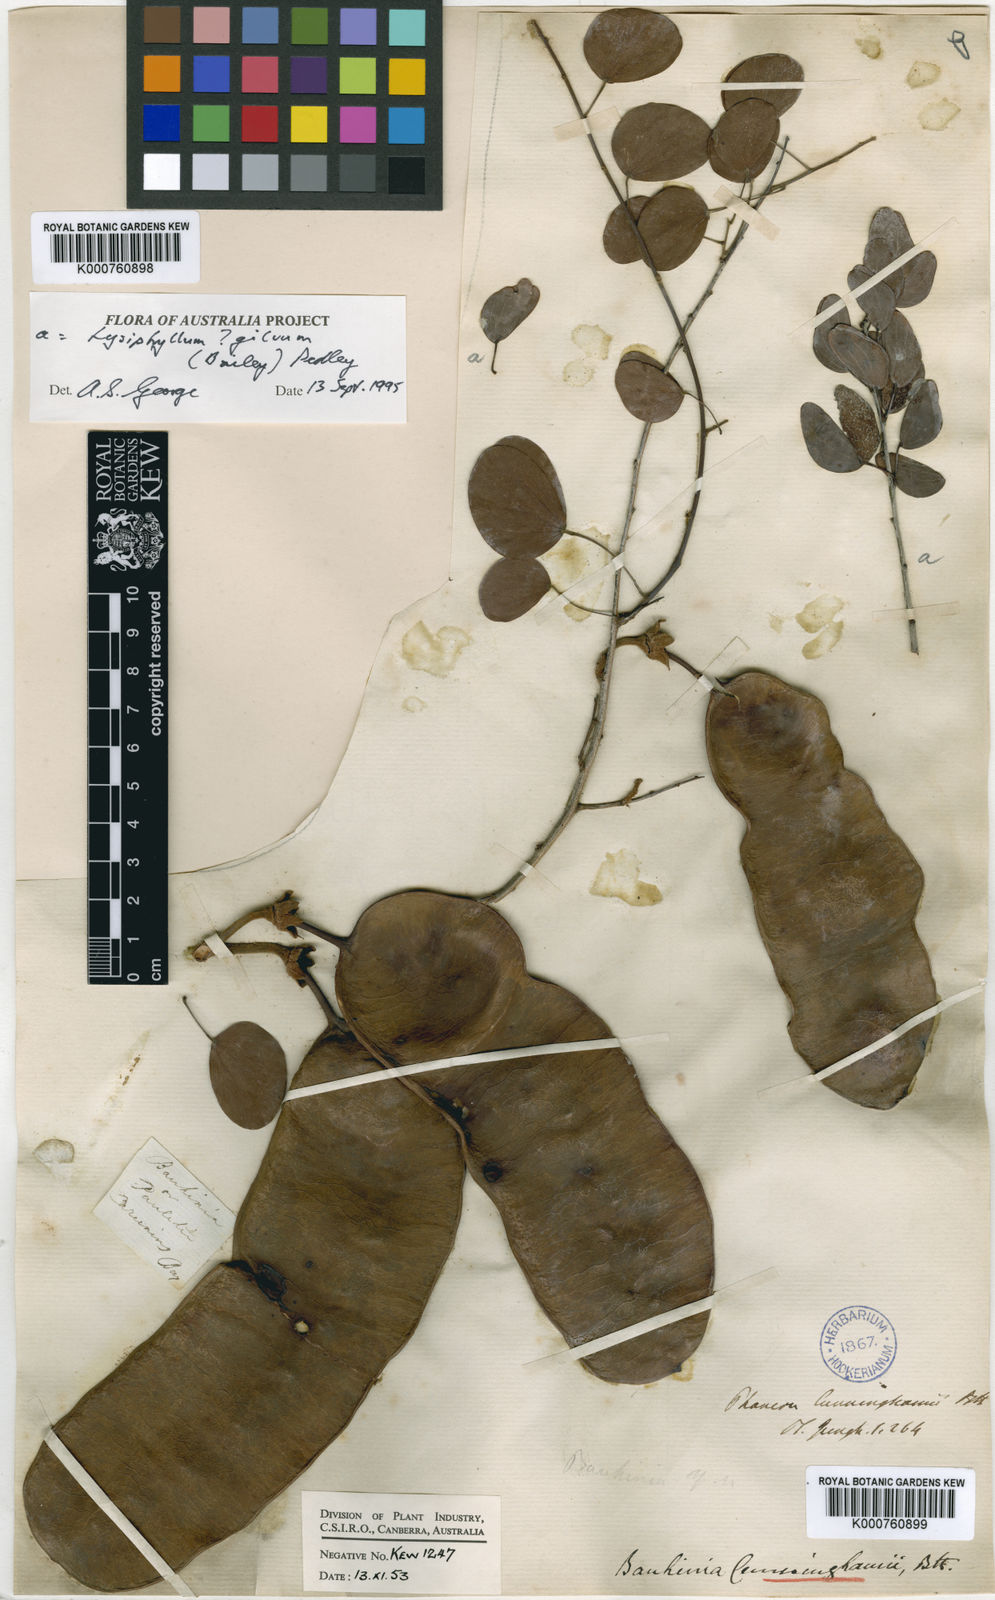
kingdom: Plantae
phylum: Tracheophyta
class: Magnoliopsida
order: Fabales
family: Fabaceae
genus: Lysiphyllum
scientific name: Lysiphyllum cunninghamii
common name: Kimberley bauhinia
